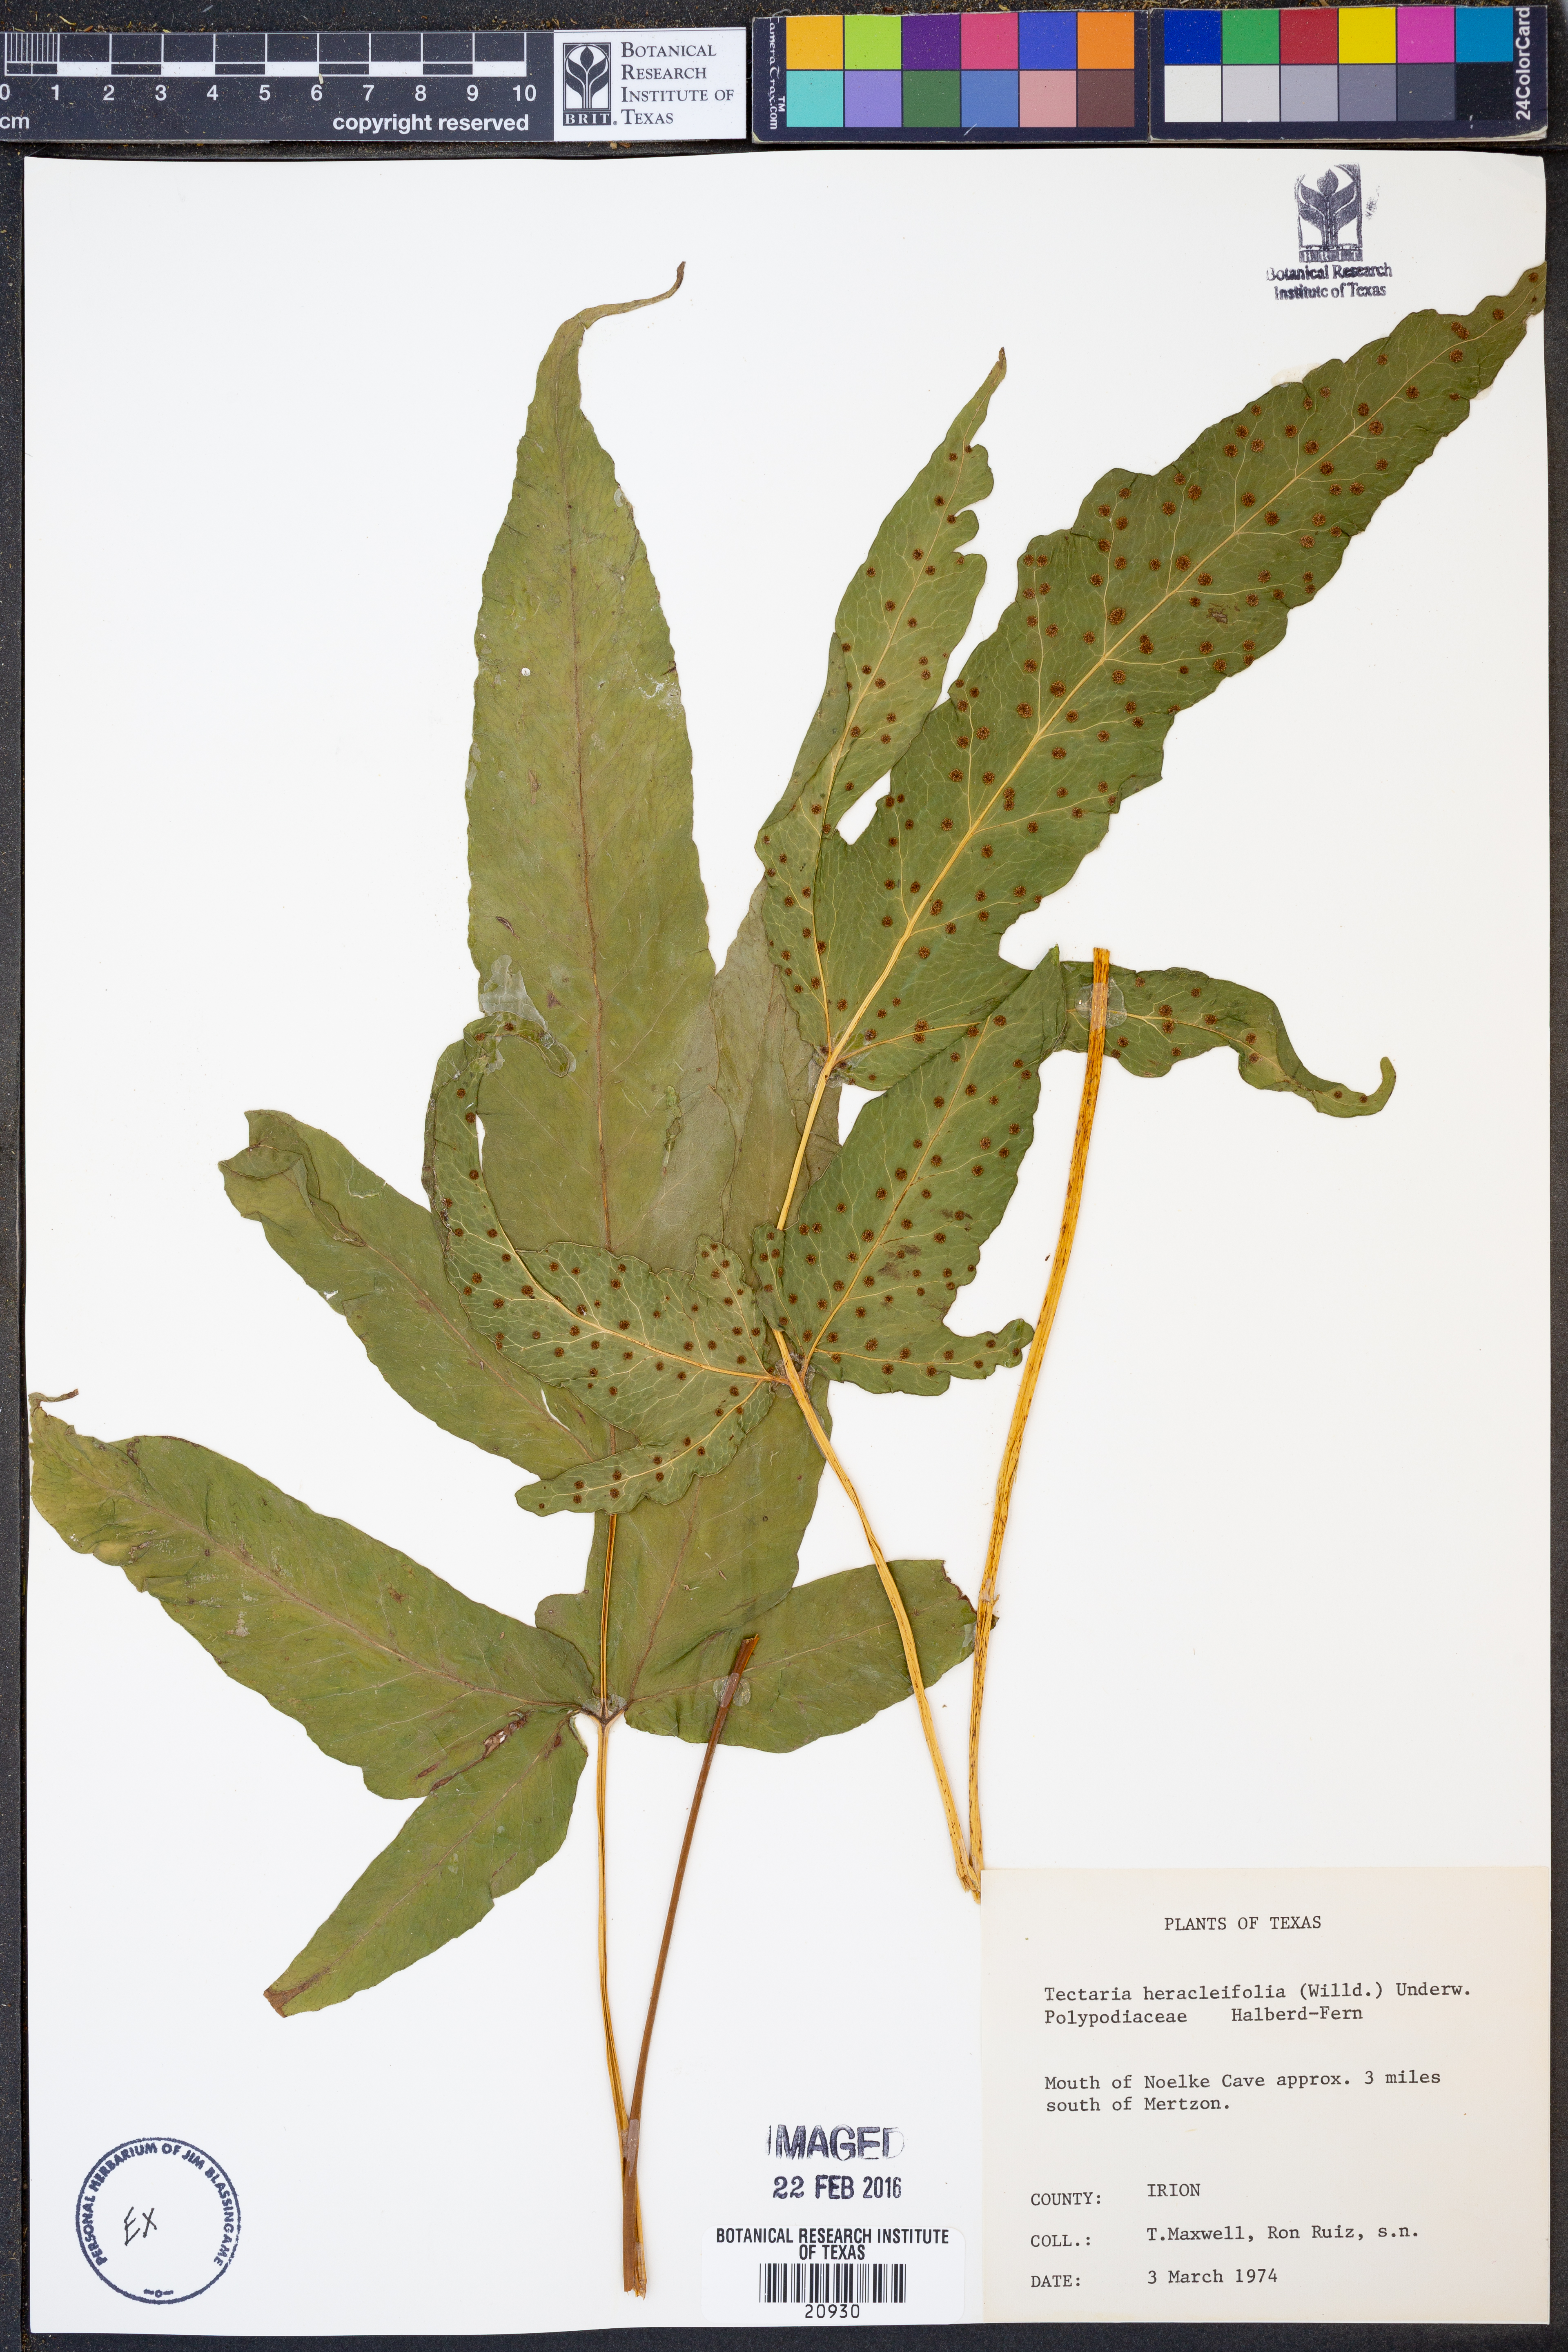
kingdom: Plantae
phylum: Tracheophyta
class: Polypodiopsida
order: Polypodiales
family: Tectariaceae
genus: Tectaria
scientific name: Tectaria heracleifolia
